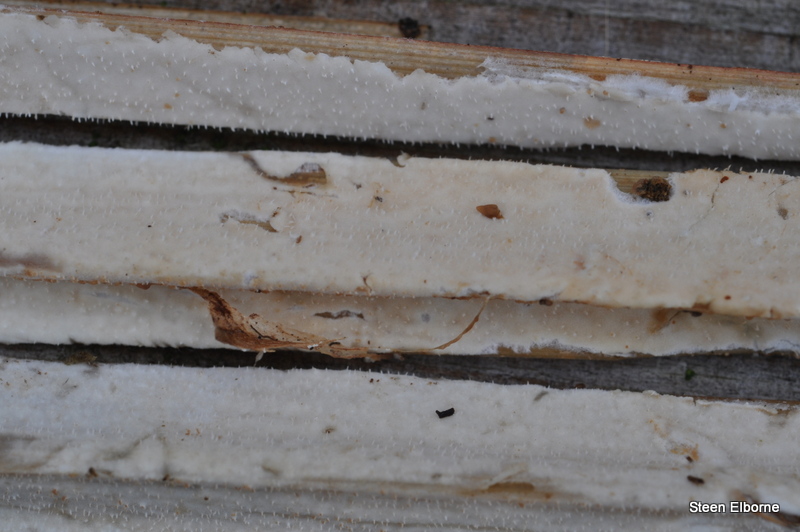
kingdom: Fungi
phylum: Basidiomycota
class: Agaricomycetes
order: Polyporales
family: Polyporaceae
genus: Epithele
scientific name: Epithele typhae
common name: starpig
